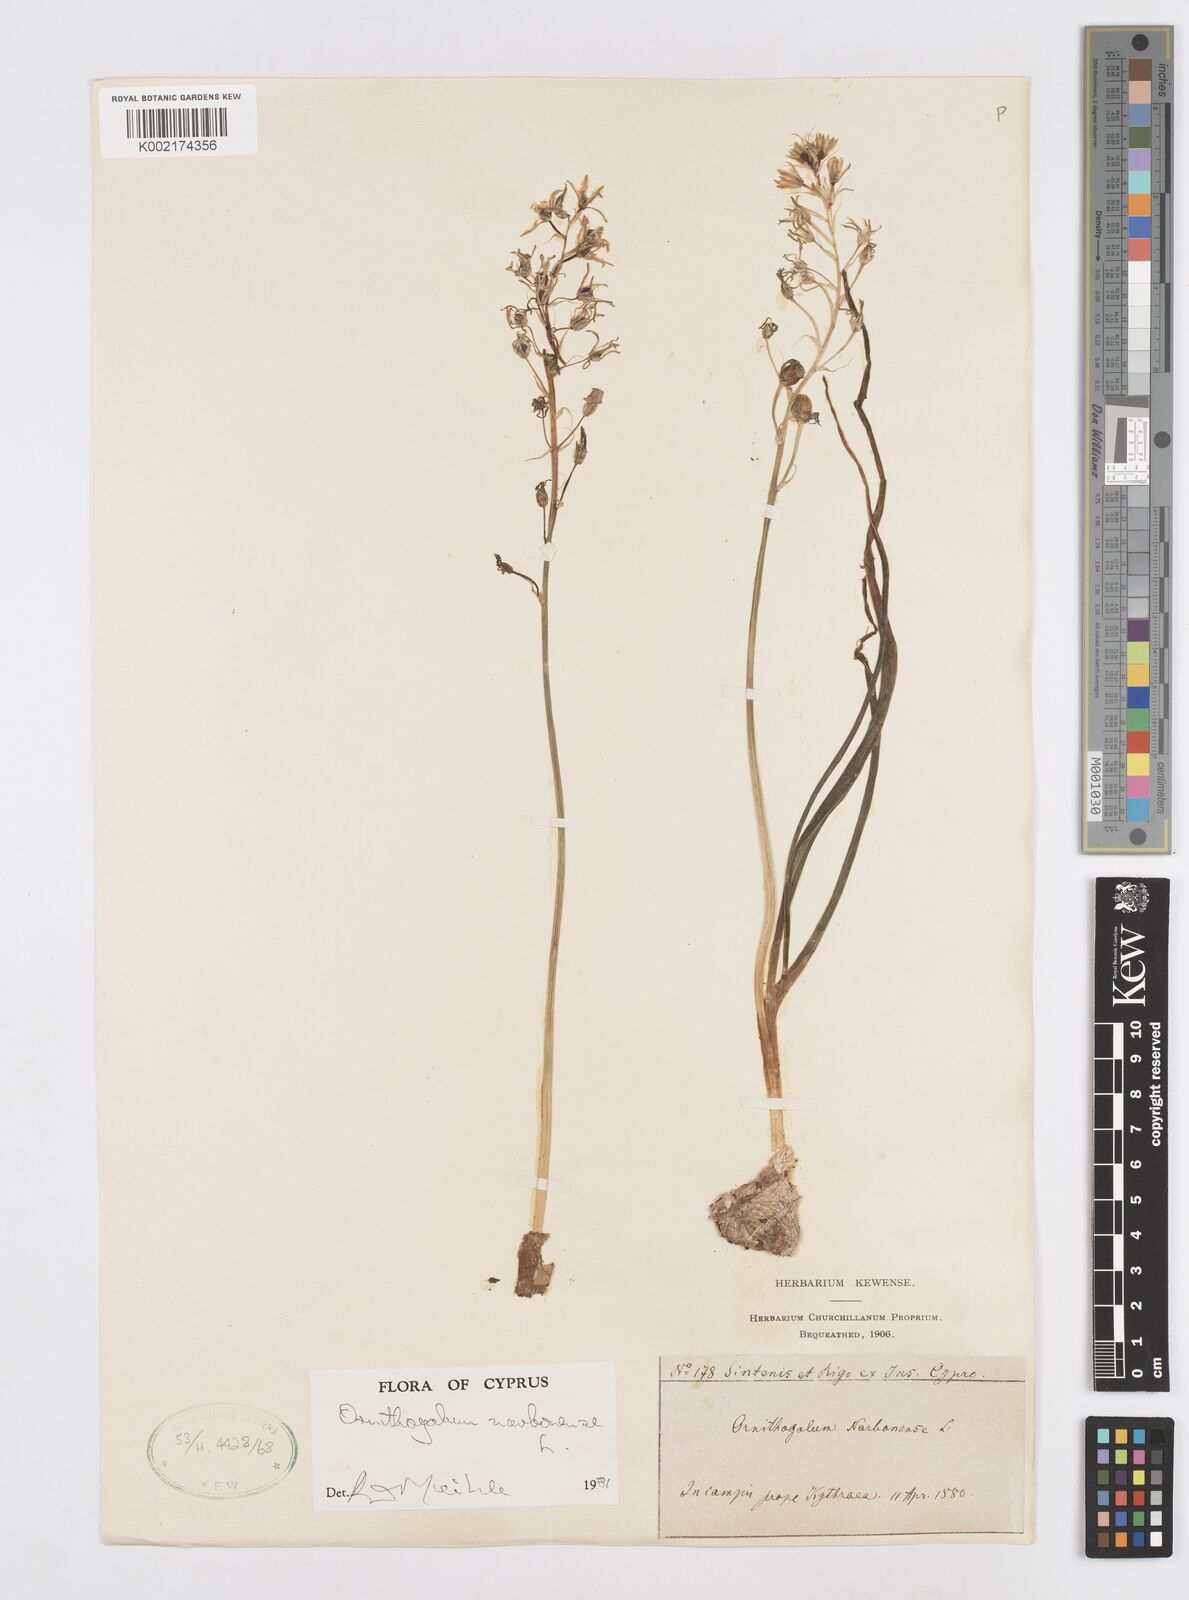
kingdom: Plantae
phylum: Tracheophyta
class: Liliopsida
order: Asparagales
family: Asparagaceae
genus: Ornithogalum
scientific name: Ornithogalum narbonense
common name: Bath-asparagus
